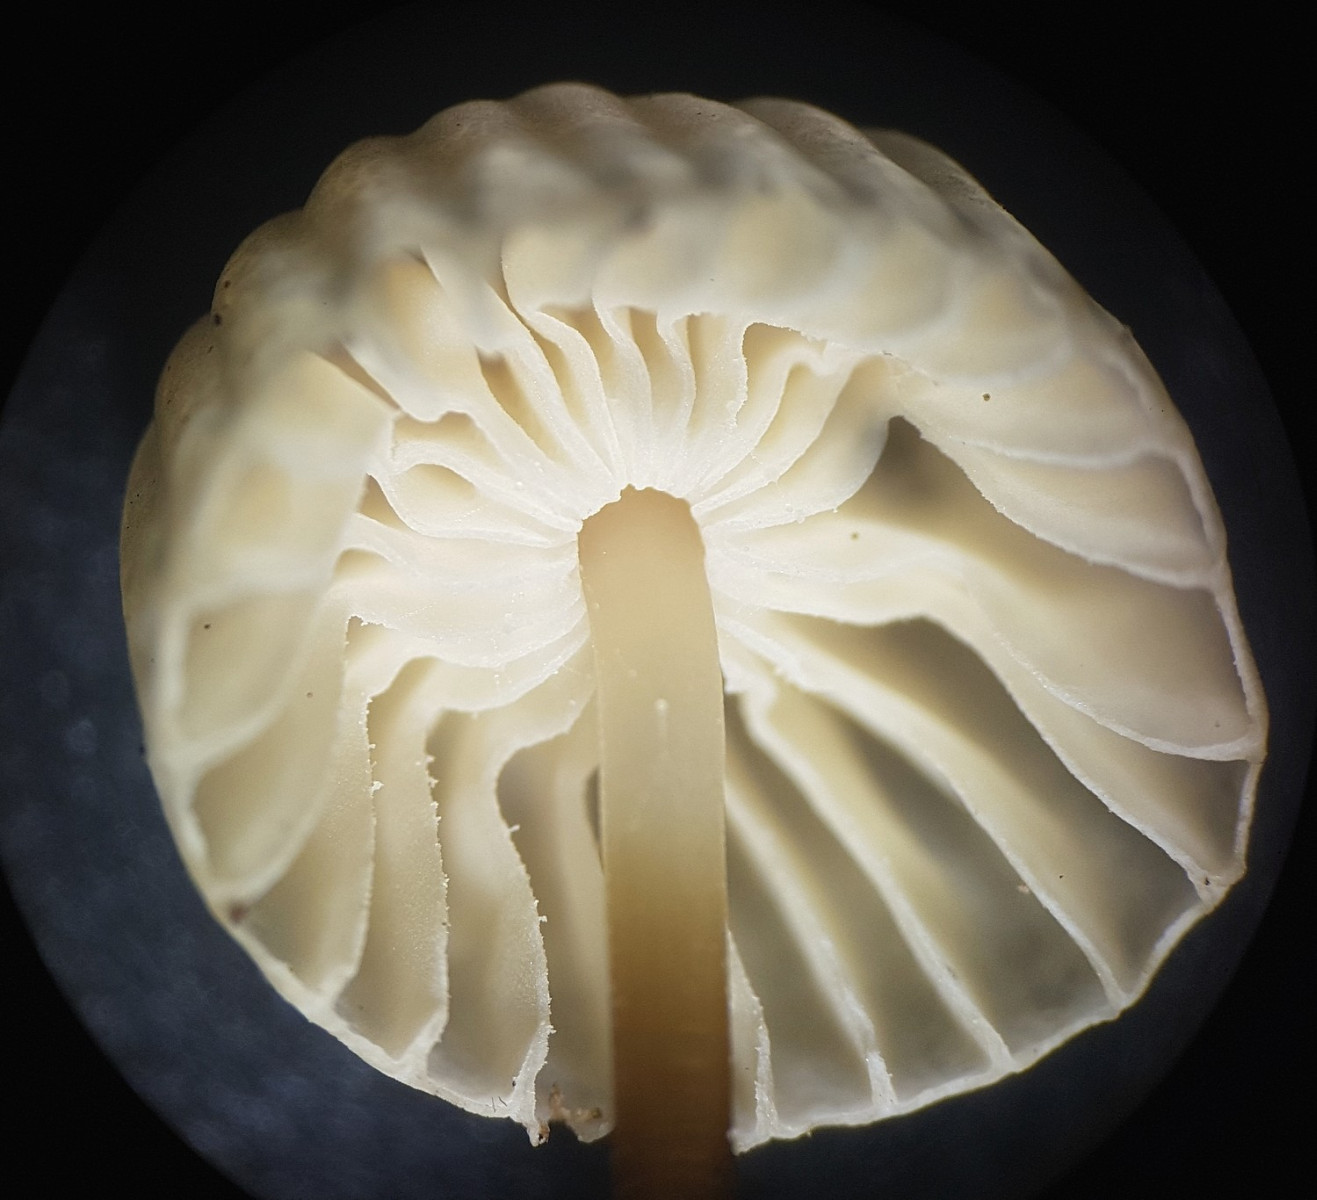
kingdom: Fungi
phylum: Basidiomycota
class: Agaricomycetes
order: Agaricales
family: Marasmiaceae
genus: Marasmius
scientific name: Marasmius rotula
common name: hjul-bruskhat
